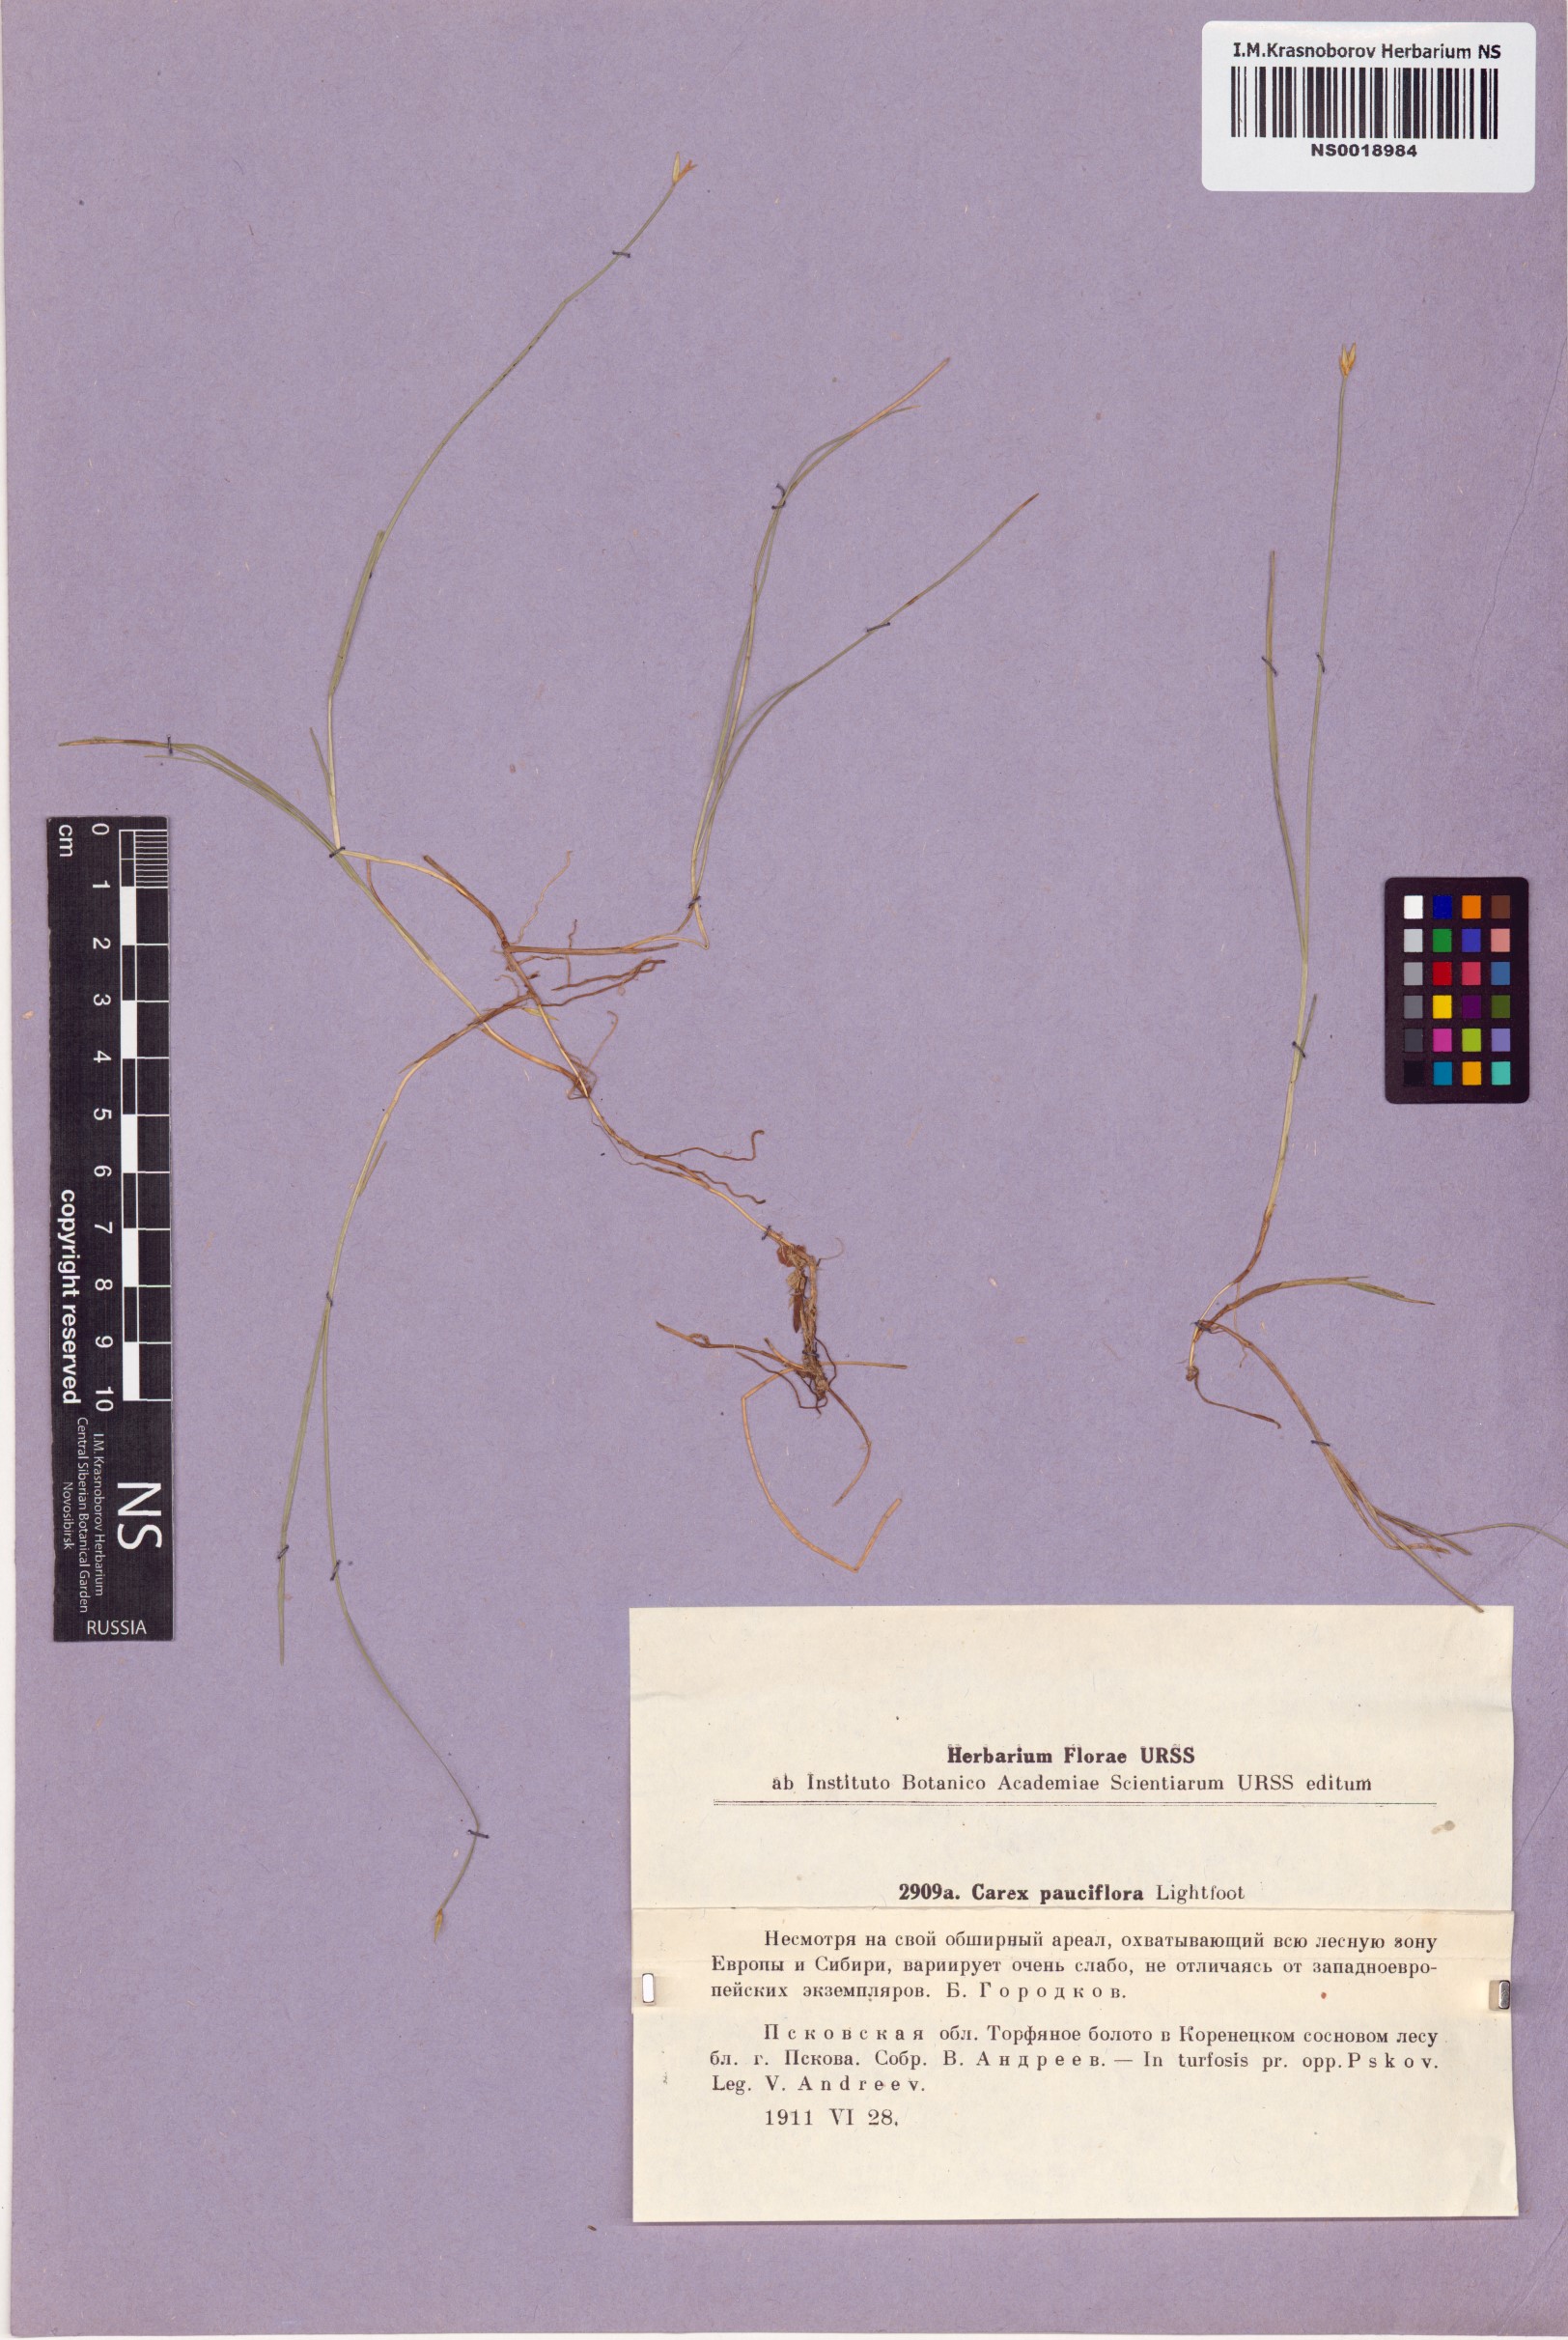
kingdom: Plantae
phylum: Tracheophyta
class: Liliopsida
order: Poales
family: Cyperaceae
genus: Carex
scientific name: Carex pauciflora
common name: Few-flowered sedge
